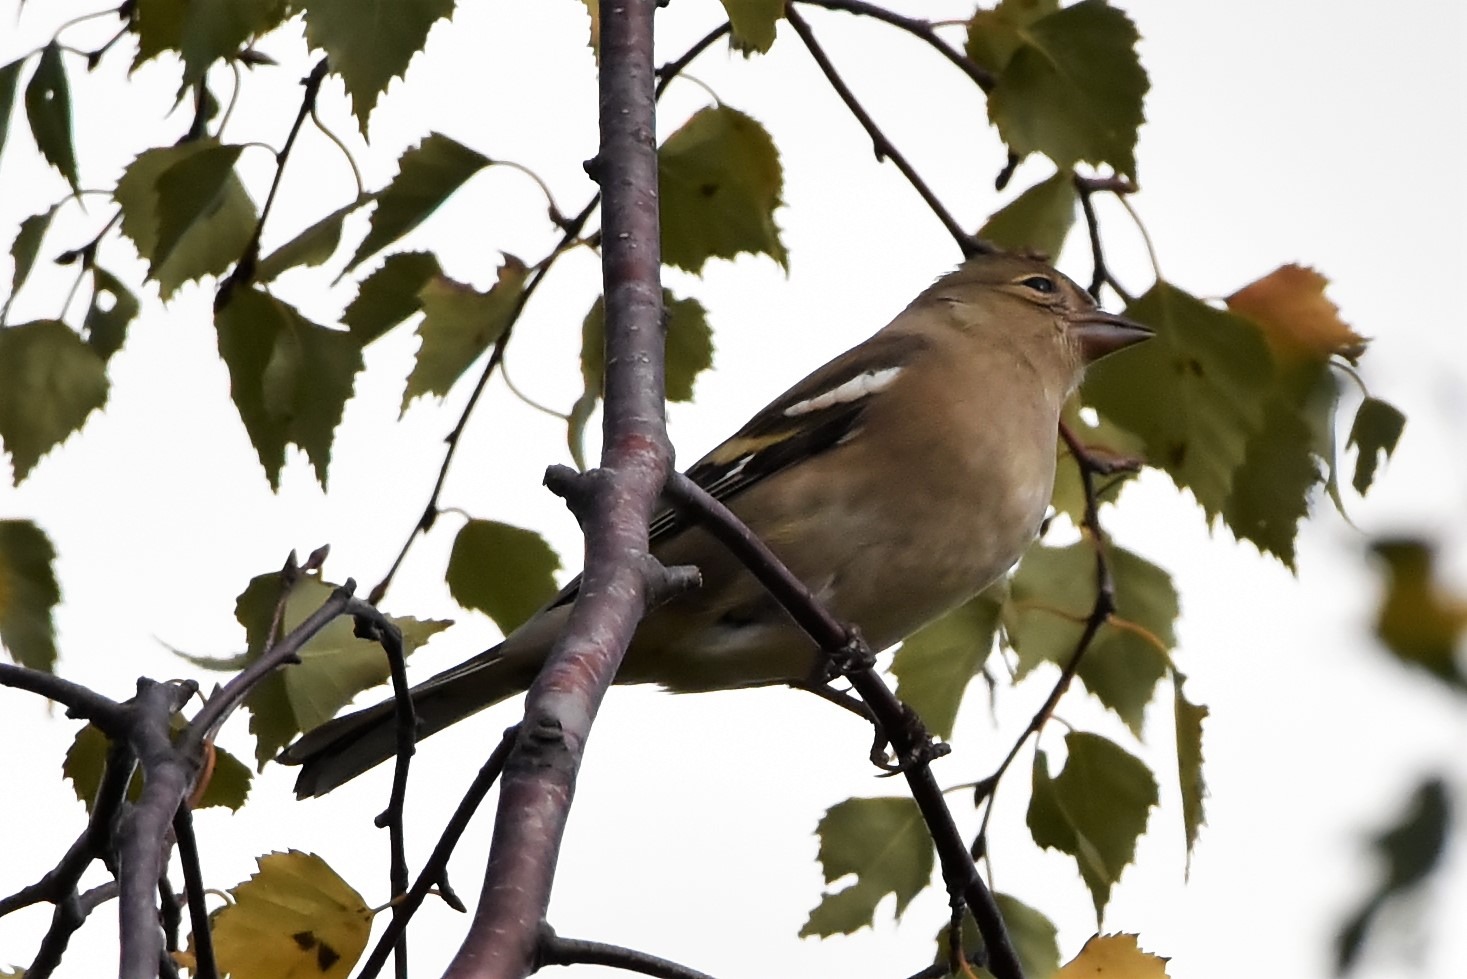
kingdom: Animalia
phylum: Chordata
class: Aves
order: Passeriformes
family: Fringillidae
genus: Fringilla
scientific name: Fringilla coelebs
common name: Bogfinke
